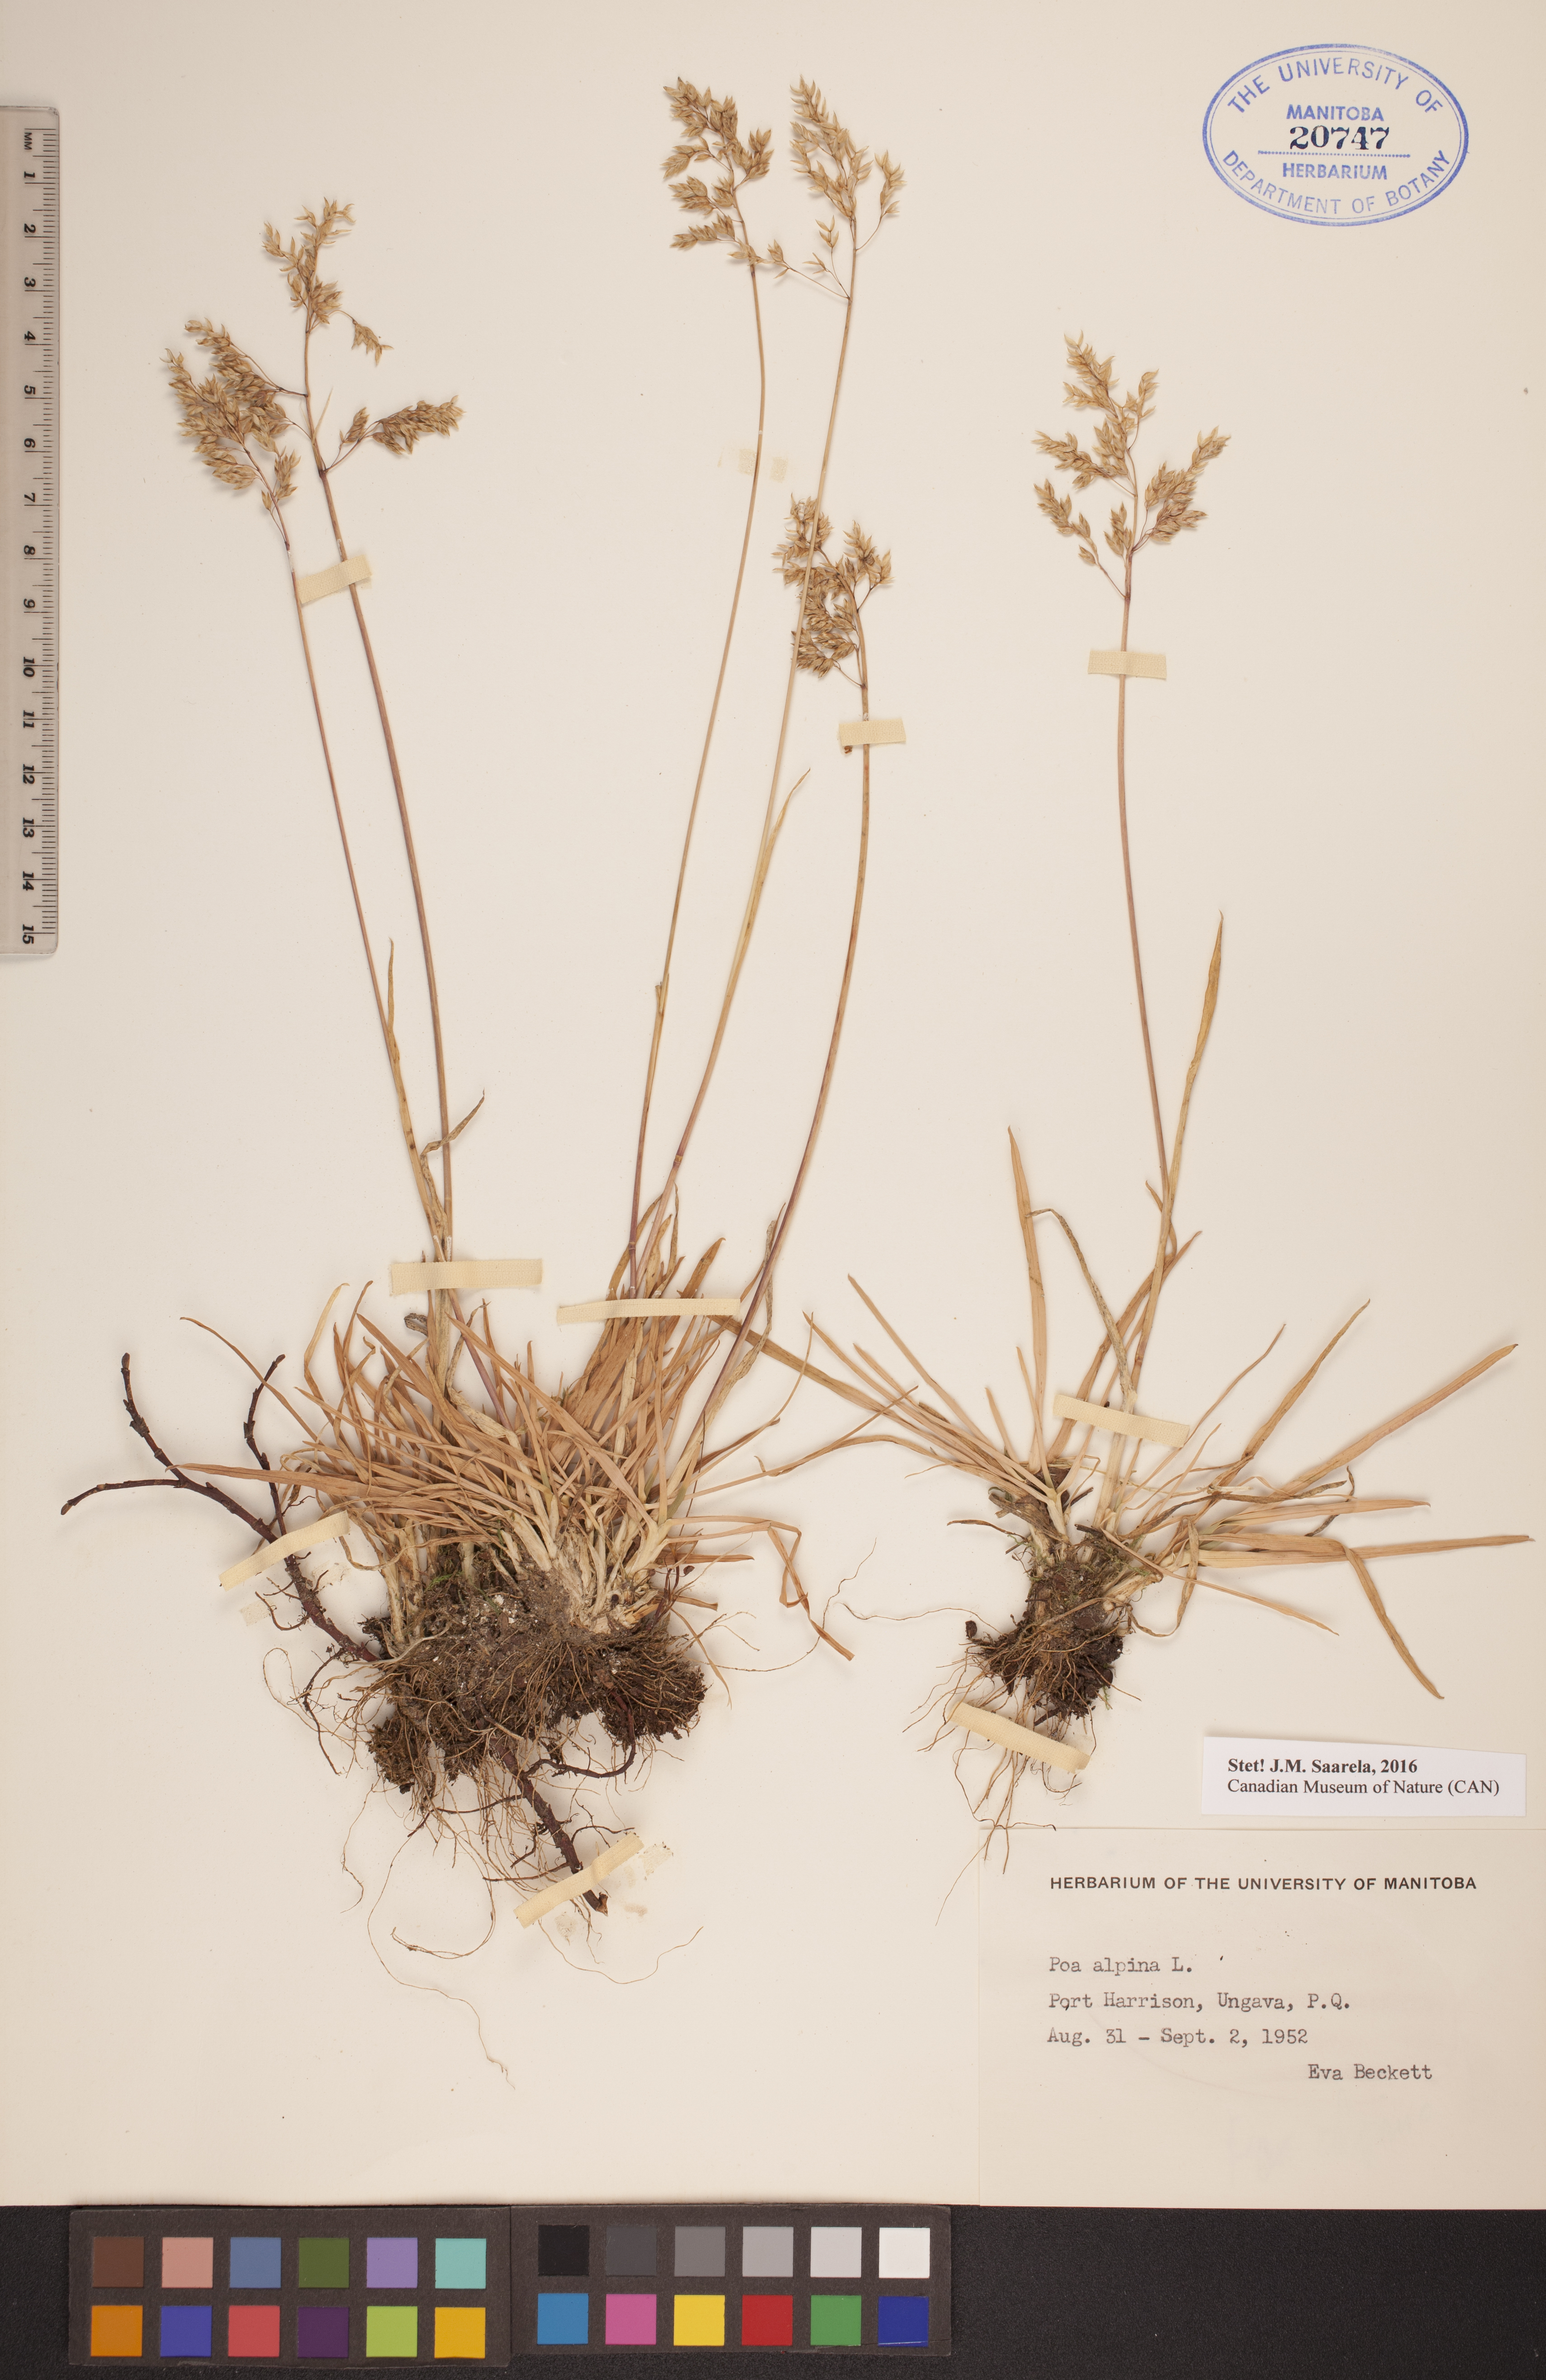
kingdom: Plantae
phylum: Tracheophyta
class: Liliopsida
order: Poales
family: Poaceae
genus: Poa
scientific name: Poa alpina
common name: Alpine bluegrass
